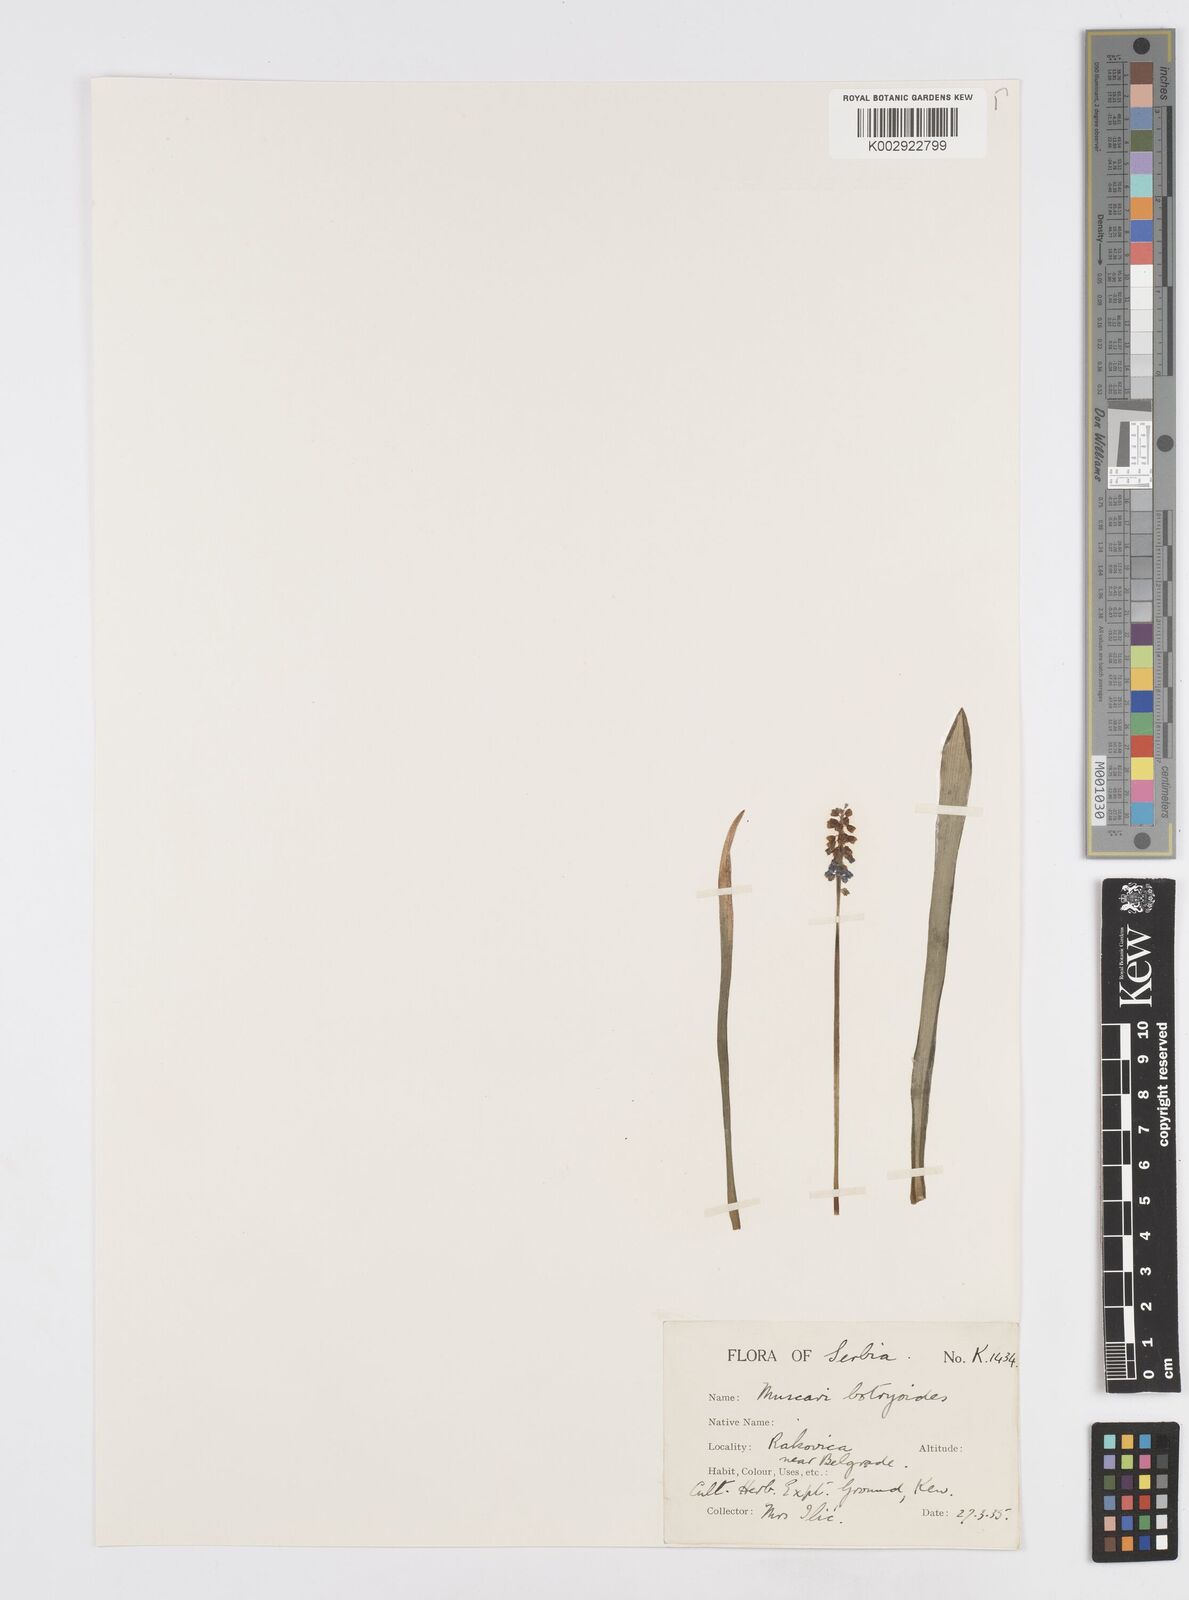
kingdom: Plantae
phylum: Tracheophyta
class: Liliopsida
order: Asparagales
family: Asparagaceae
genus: Muscari
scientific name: Muscari botryoides
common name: Compact grape-hyacinth
